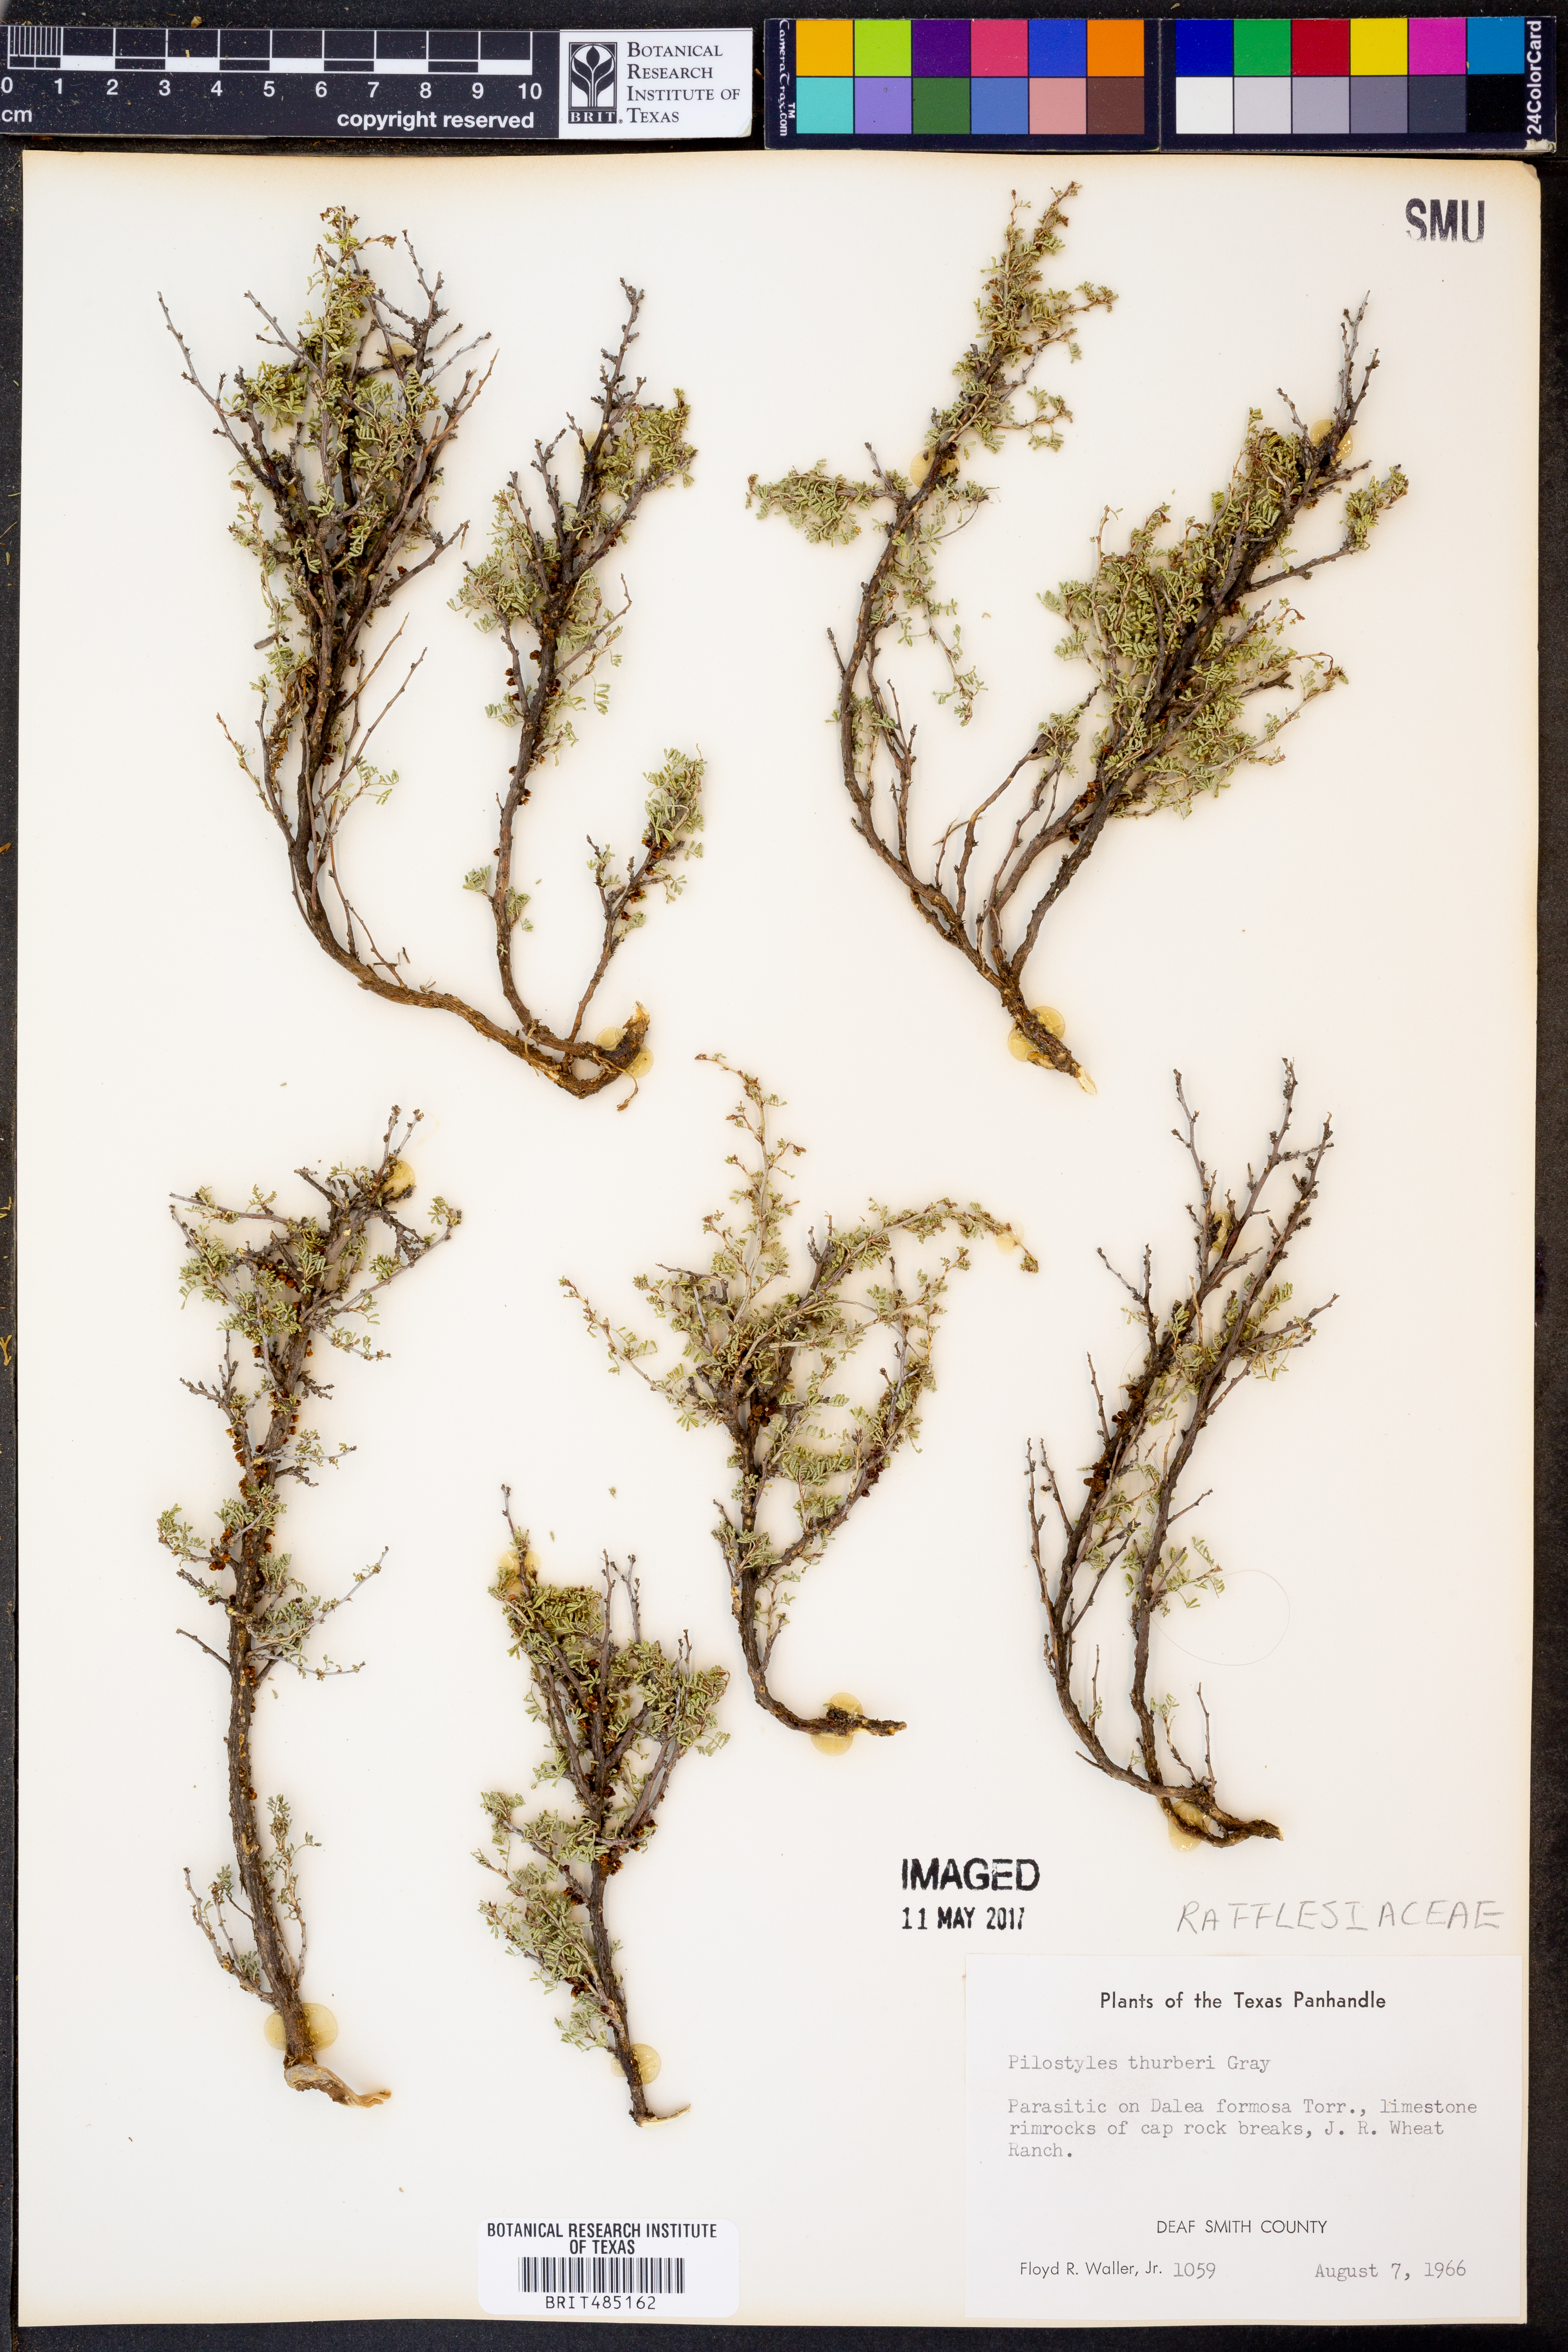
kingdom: Plantae
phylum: Tracheophyta
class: Magnoliopsida
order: Cucurbitales
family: Apodanthaceae
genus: Pilostyles
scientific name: Pilostyles thurberi
